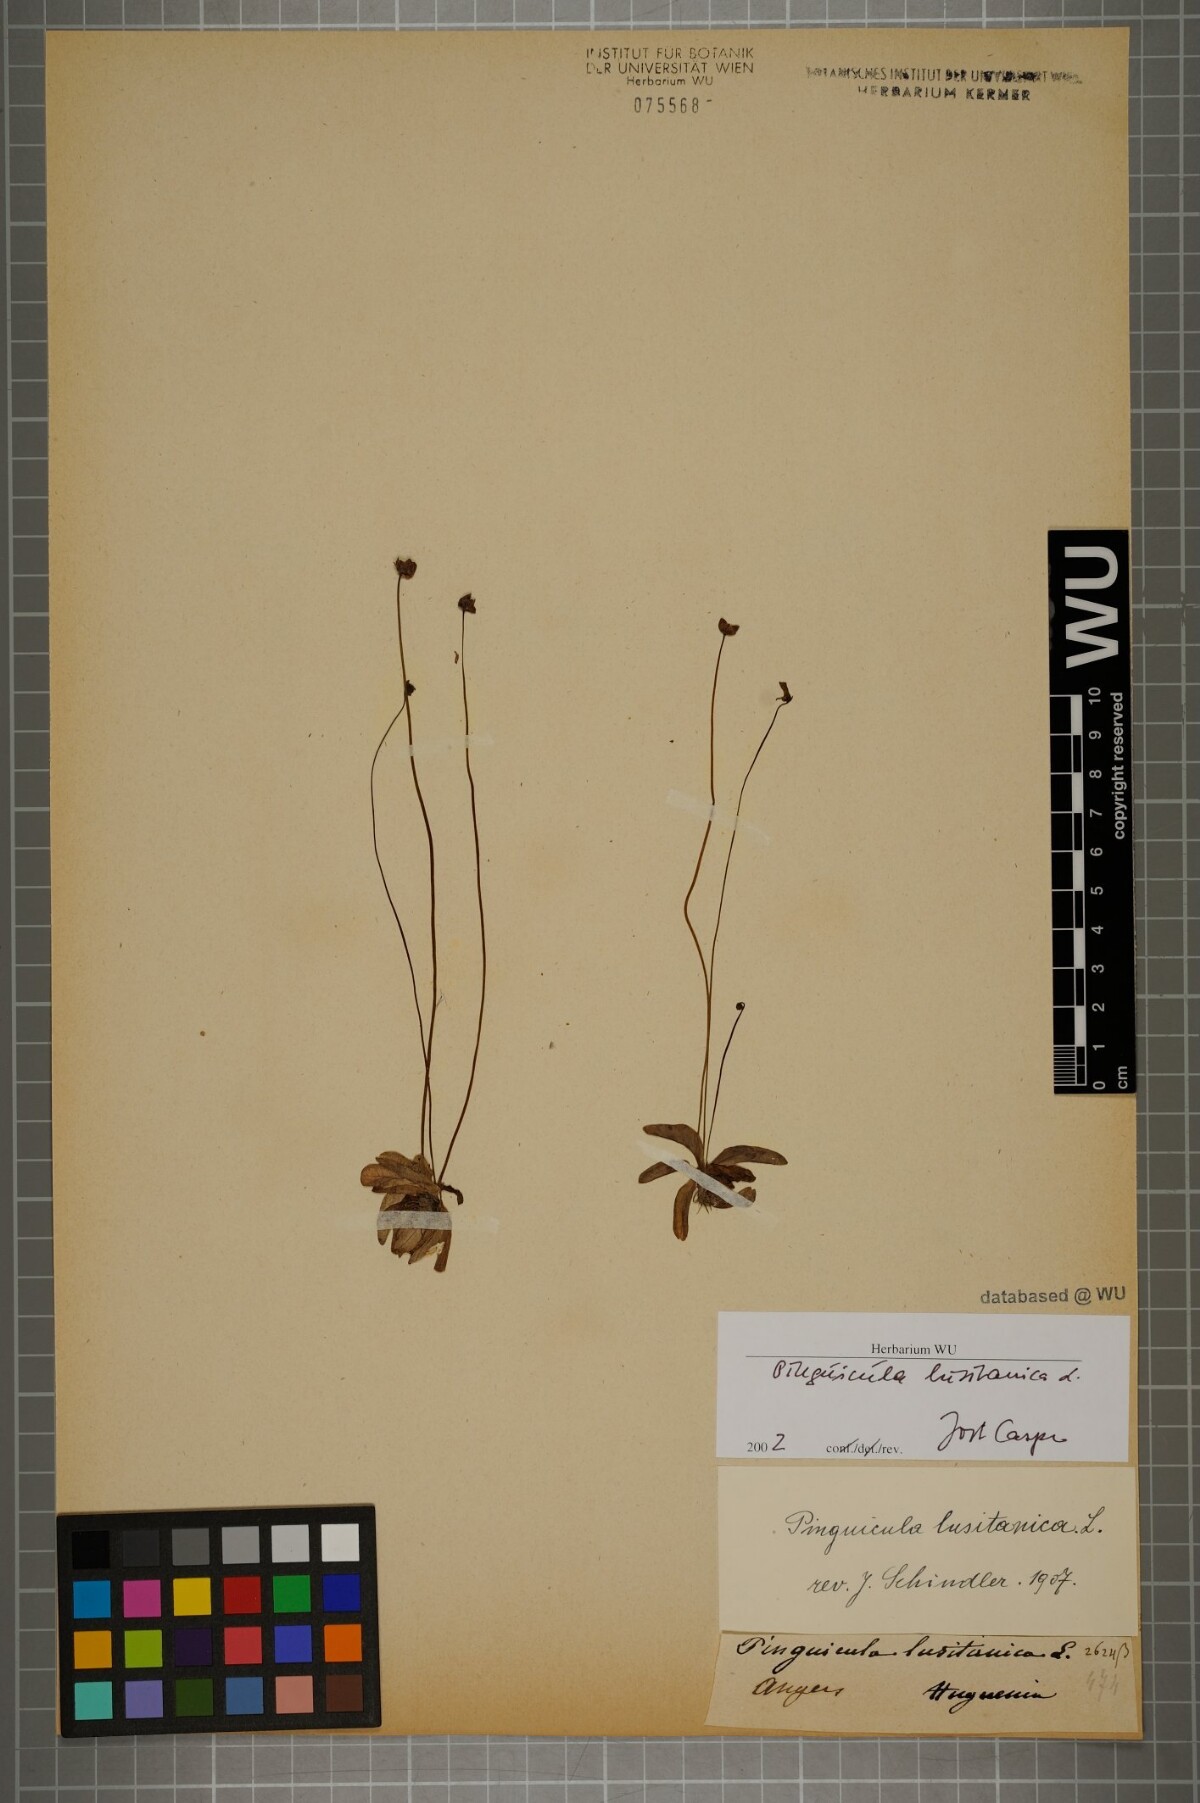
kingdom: Plantae
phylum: Tracheophyta
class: Magnoliopsida
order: Lamiales
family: Lentibulariaceae
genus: Pinguicula
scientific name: Pinguicula lusitanica
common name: Pale butterwort
